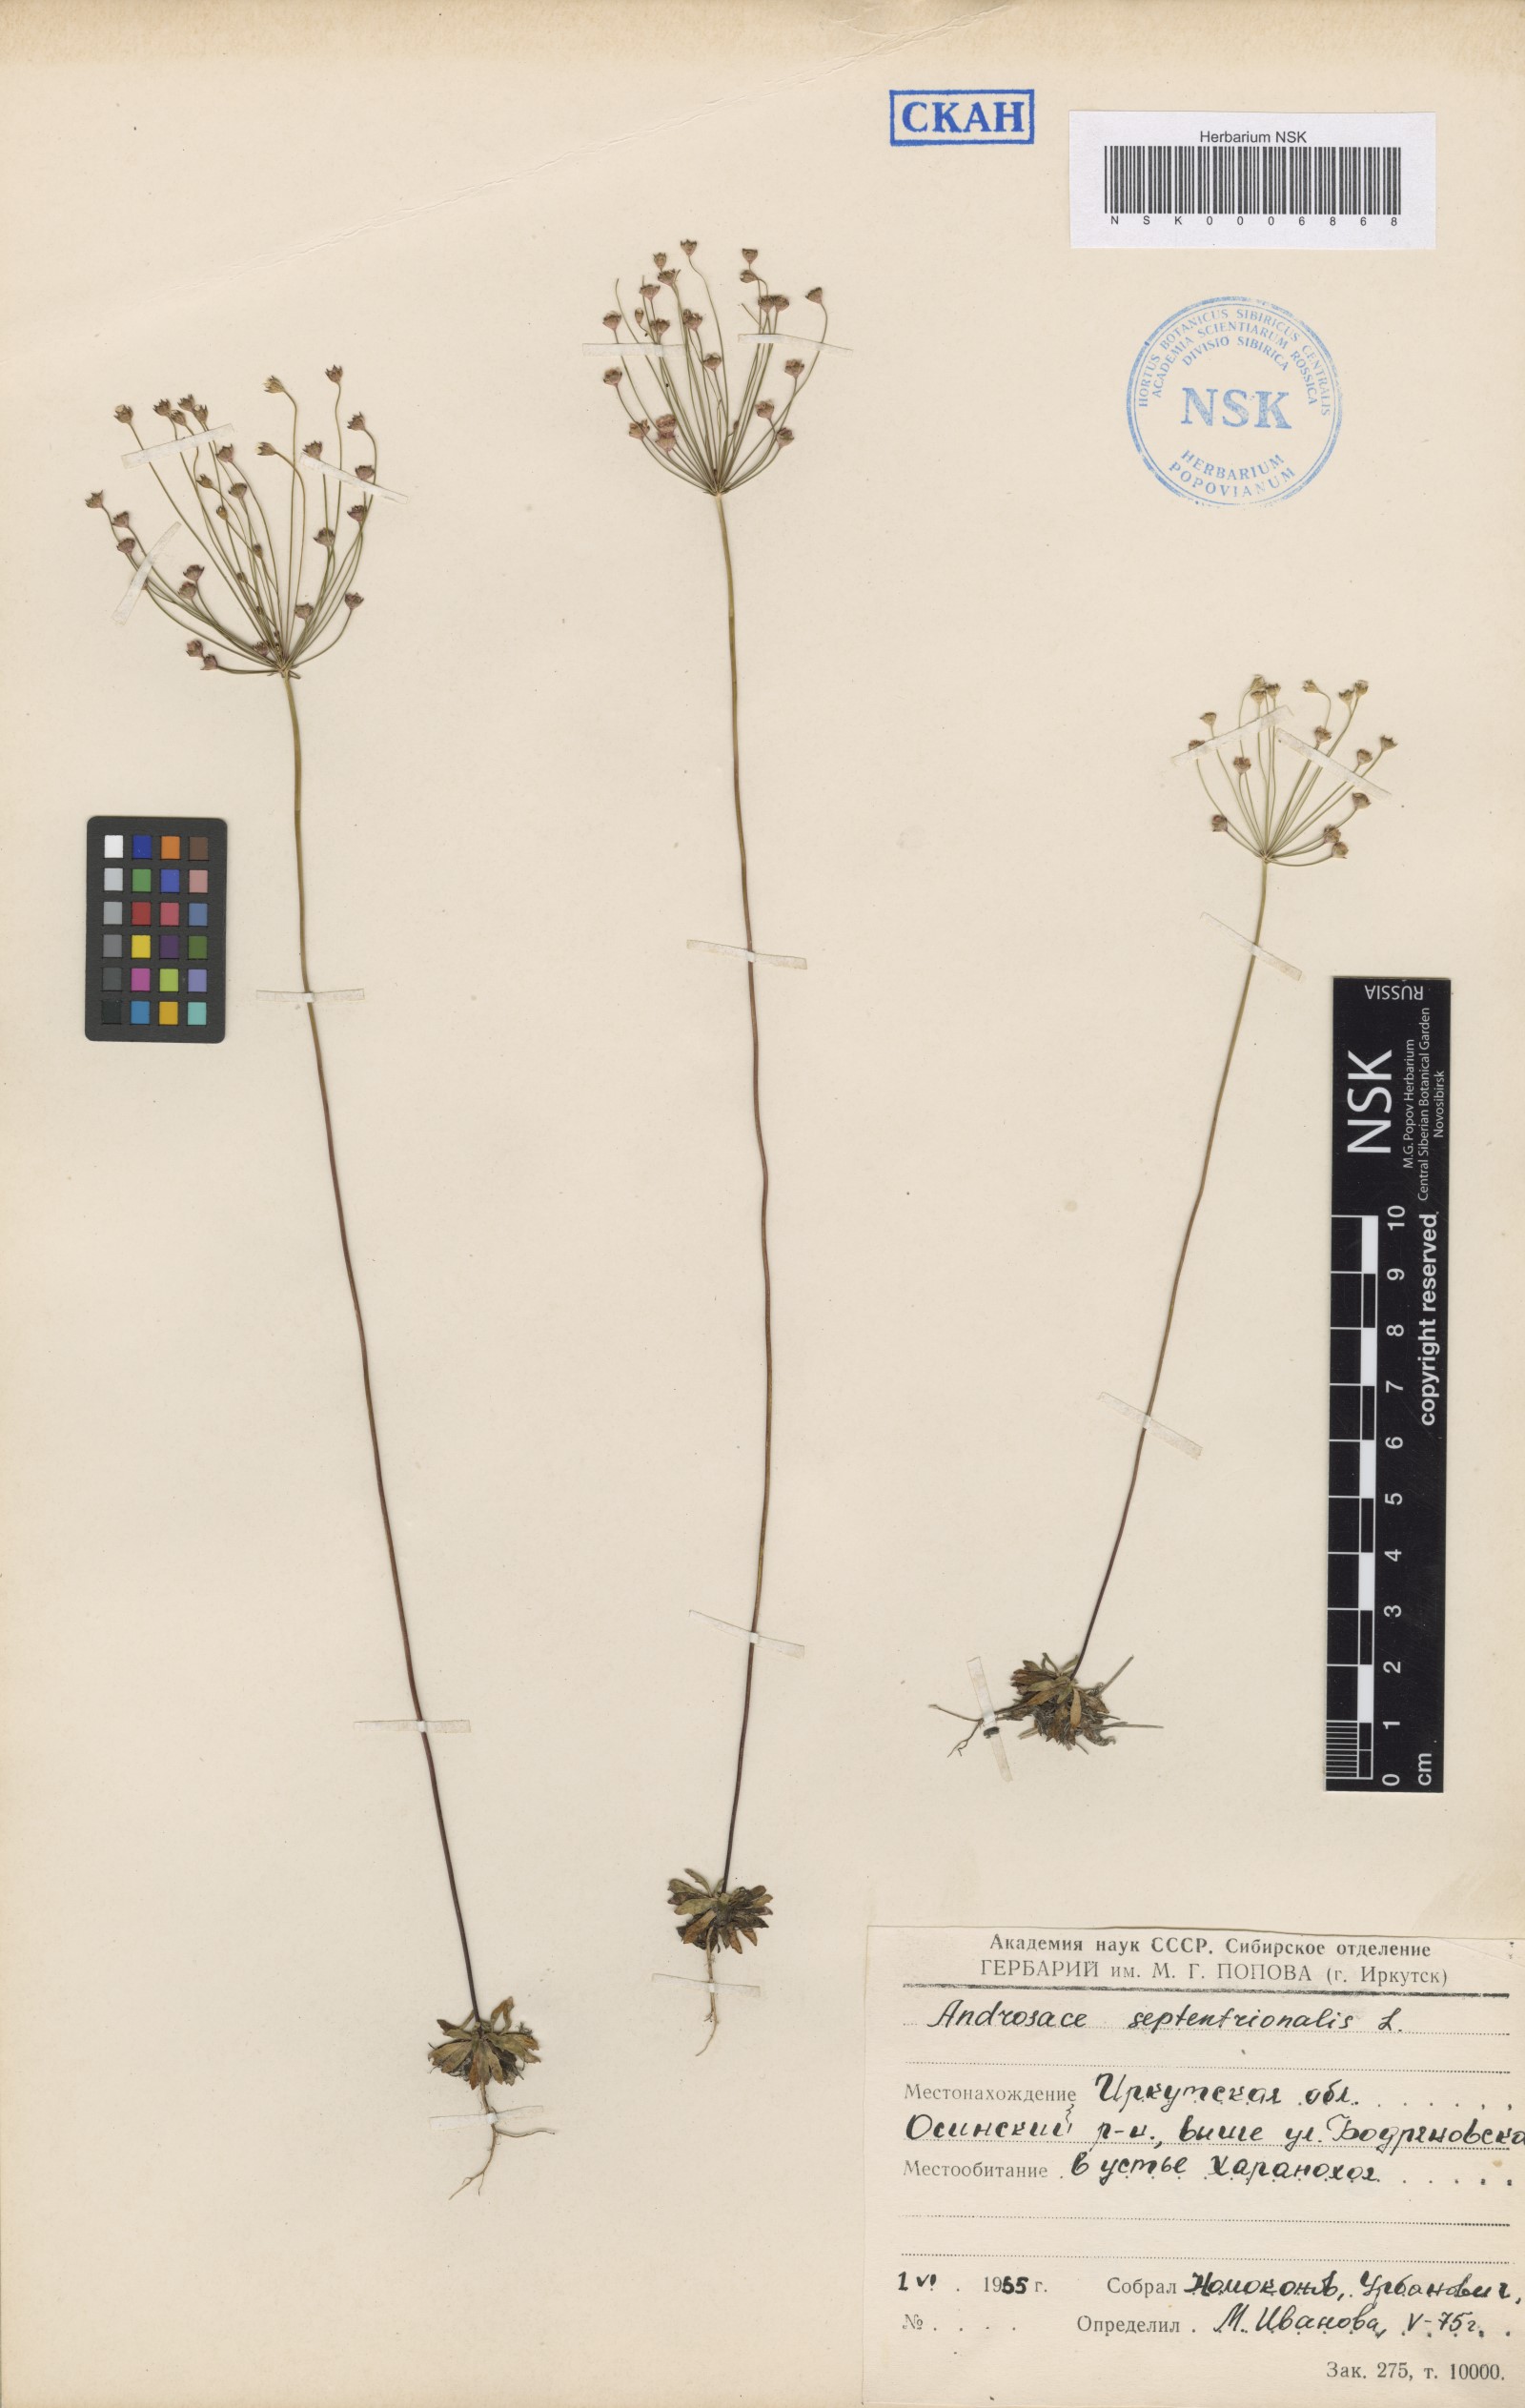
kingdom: Plantae
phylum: Tracheophyta
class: Magnoliopsida
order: Ericales
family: Primulaceae
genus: Androsace
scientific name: Androsace septentrionalis
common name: Hairy northern fairy-candelabra
